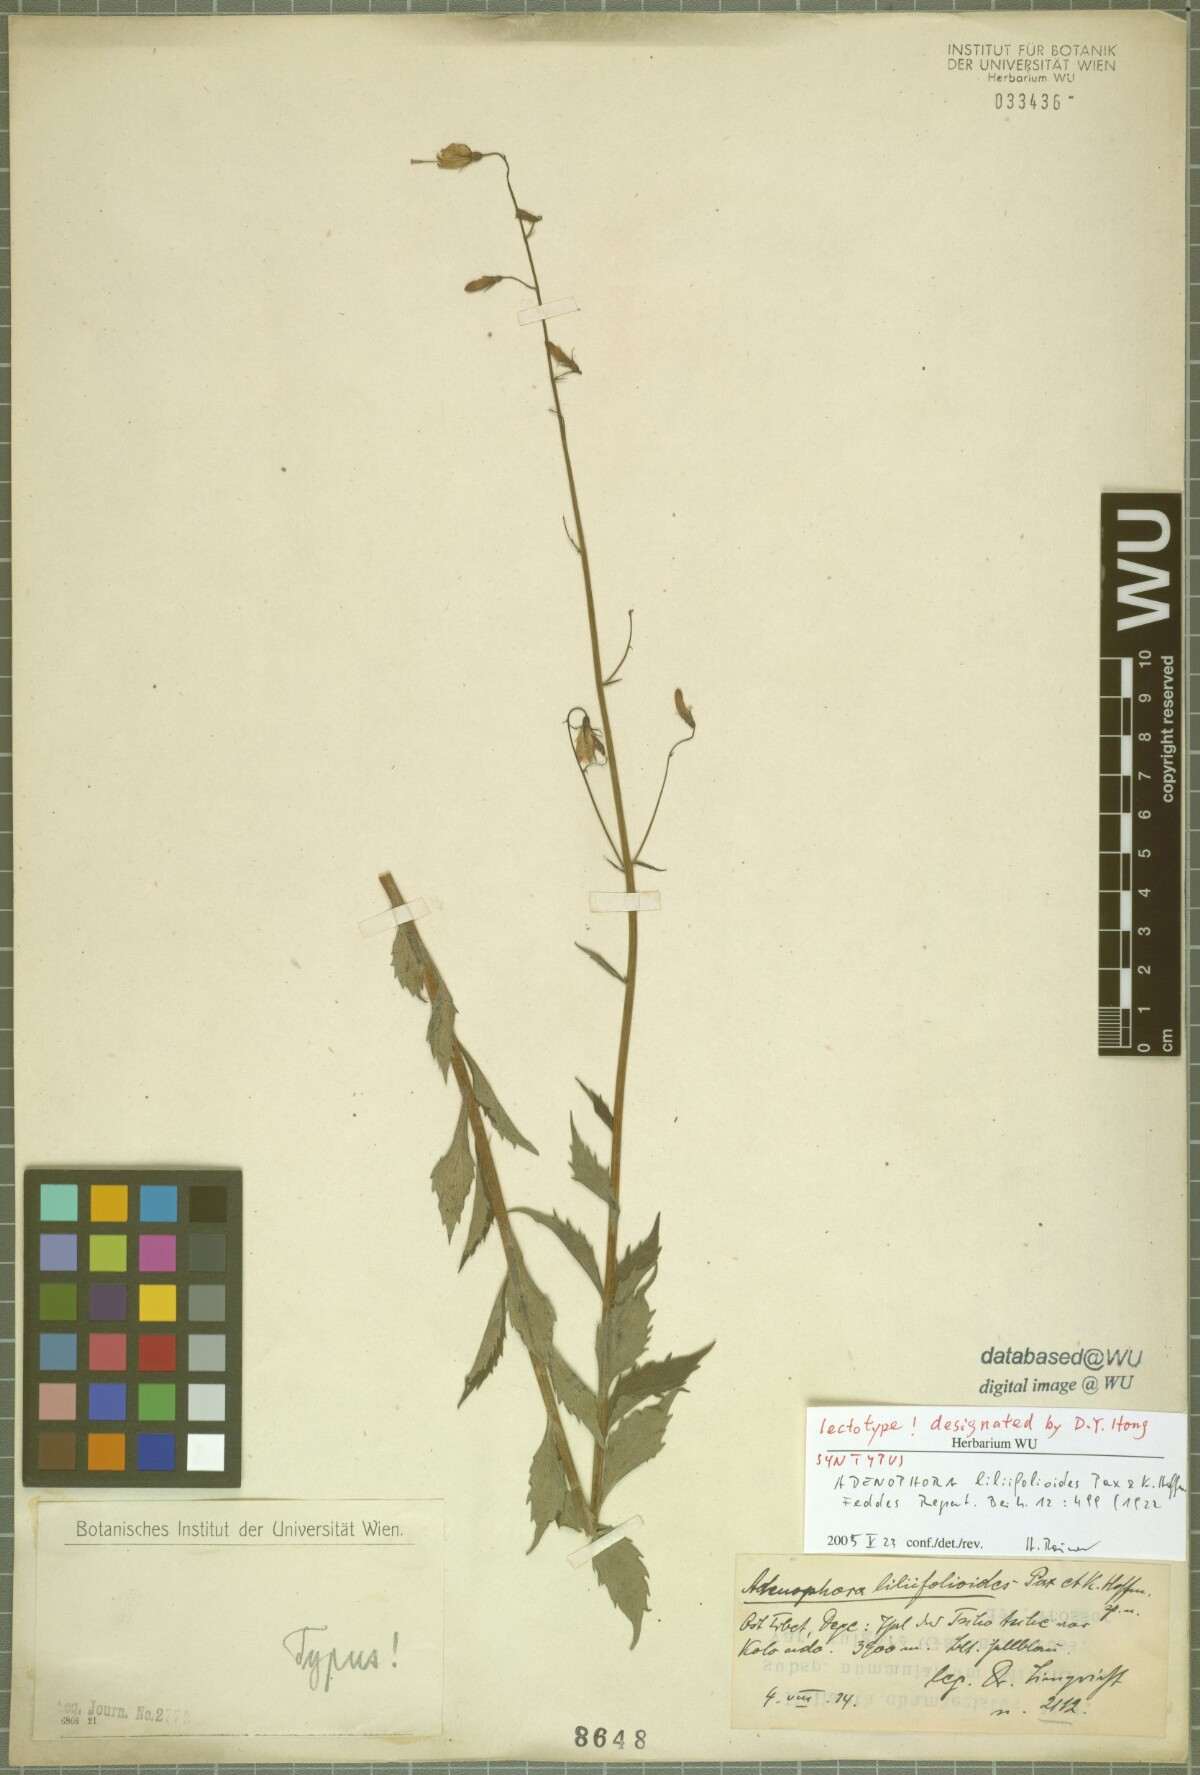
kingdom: Plantae
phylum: Tracheophyta
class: Magnoliopsida
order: Asterales
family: Campanulaceae
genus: Adenophora
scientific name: Adenophora liliifolioides
